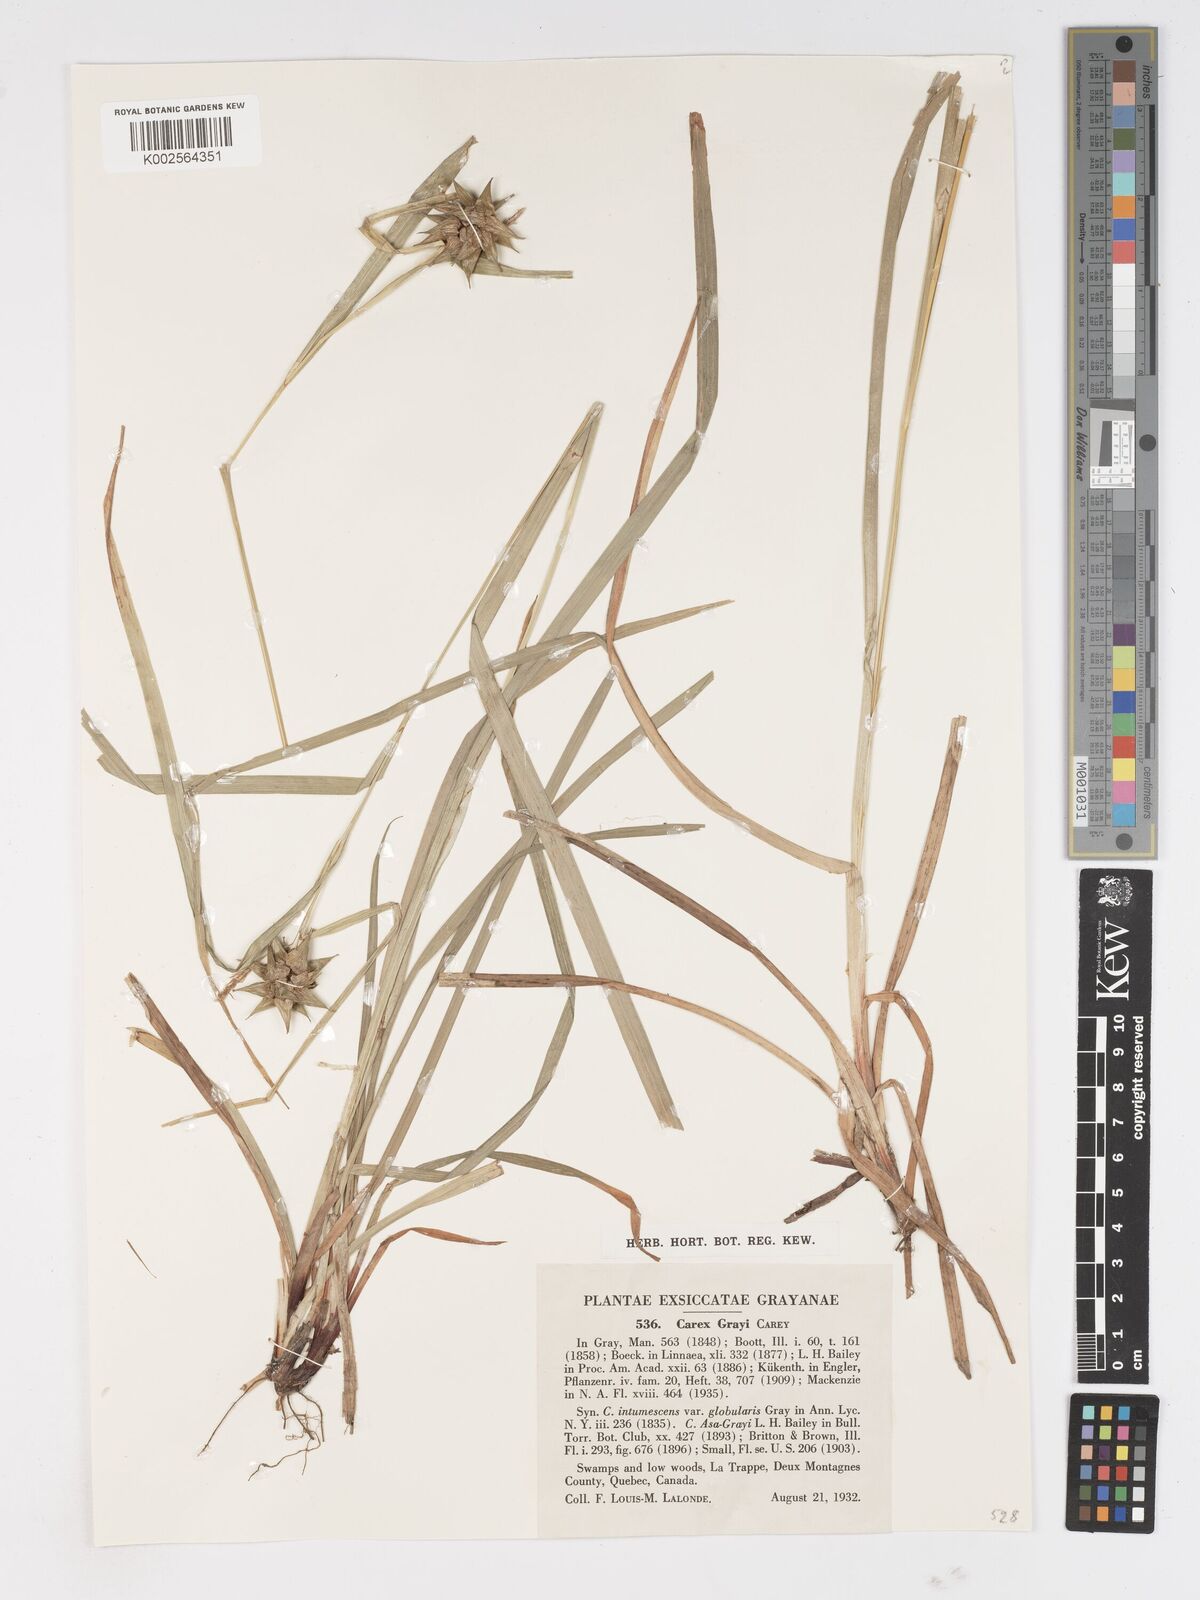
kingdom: Plantae
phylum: Tracheophyta
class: Liliopsida
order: Poales
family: Cyperaceae
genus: Carex
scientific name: Carex grayi
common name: Asa gray's sedge
